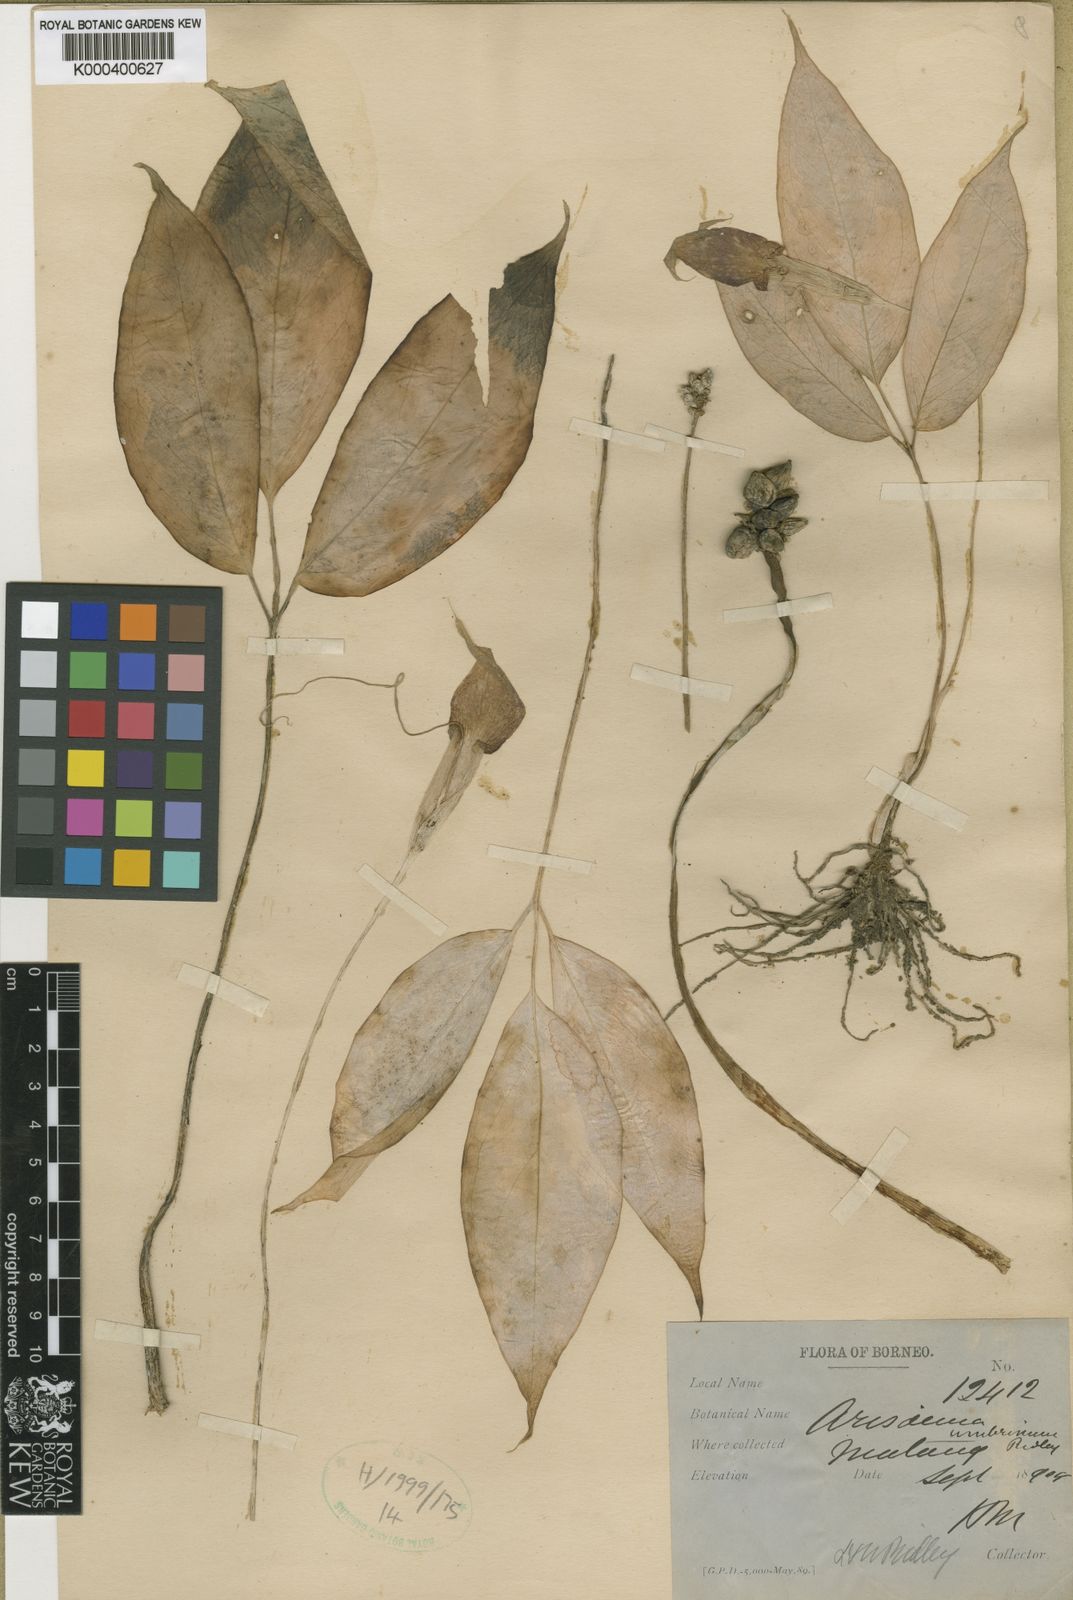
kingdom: Plantae
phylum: Tracheophyta
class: Liliopsida
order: Alismatales
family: Araceae
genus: Arisaema
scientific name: Arisaema umbrinum
